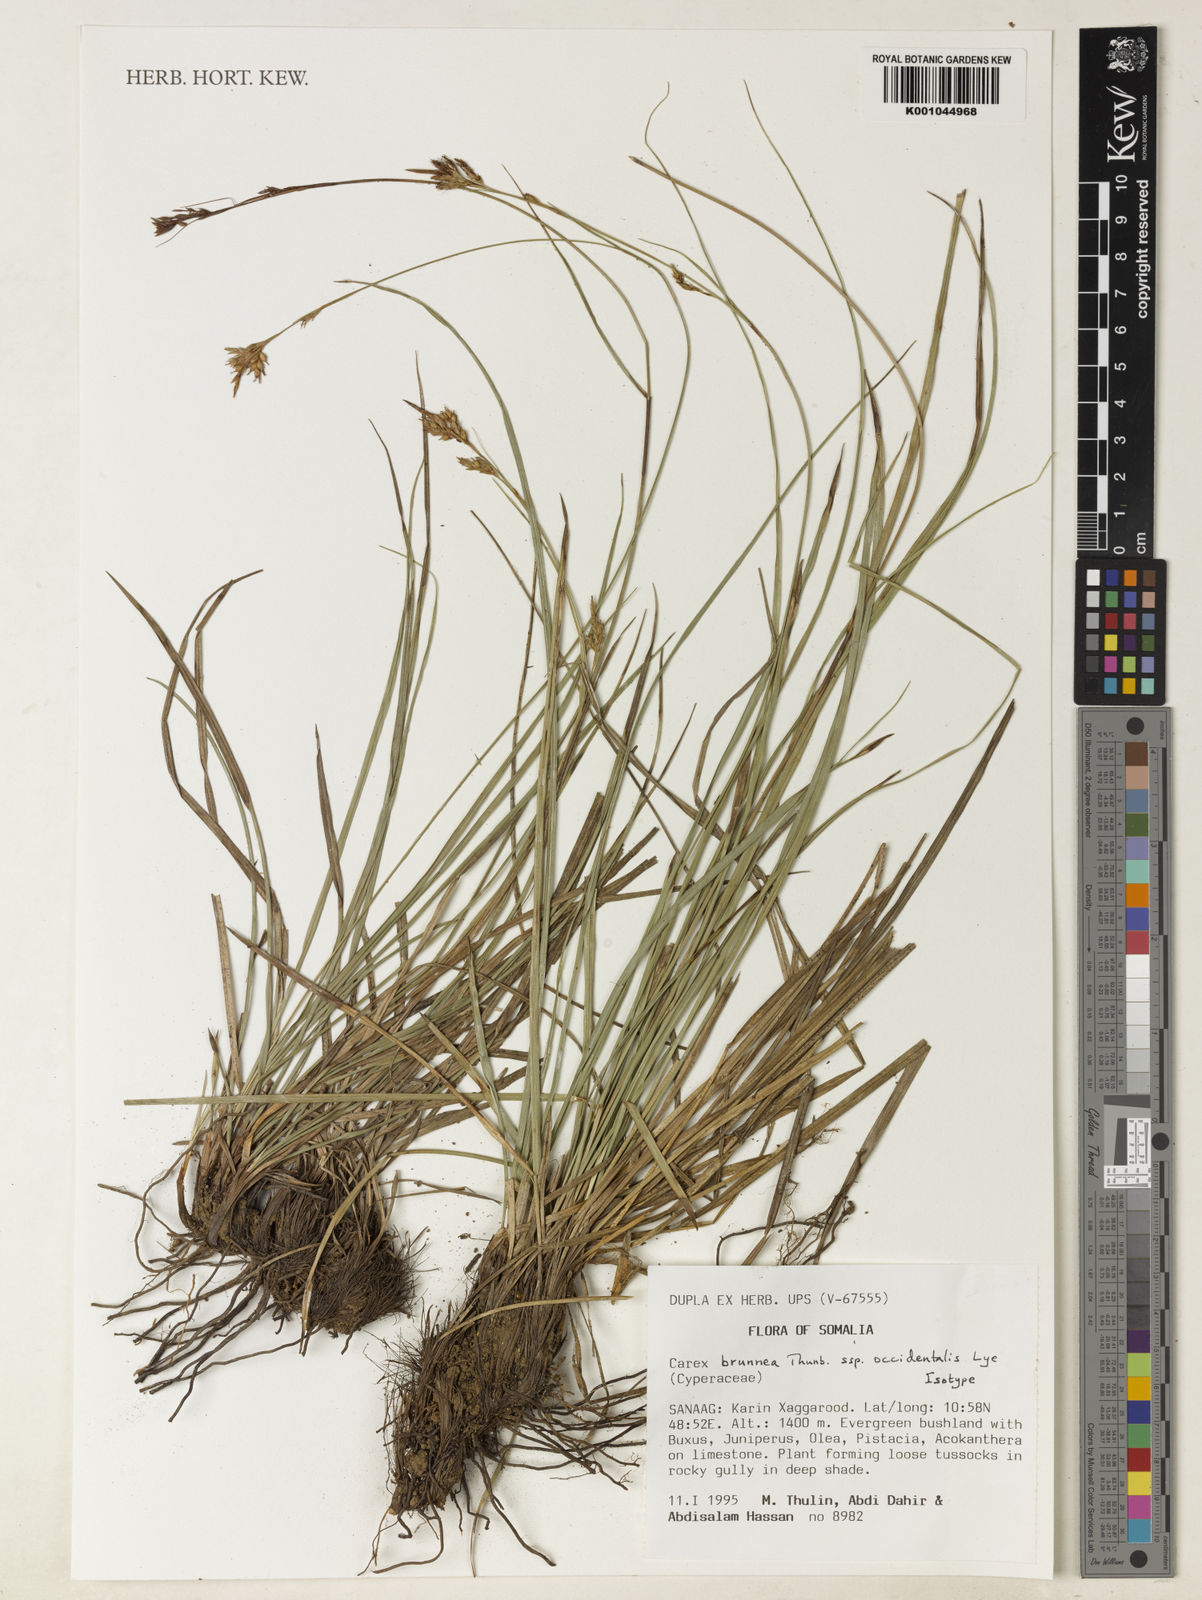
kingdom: Plantae
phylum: Tracheophyta
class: Liliopsida
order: Poales
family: Cyperaceae
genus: Carex
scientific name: Carex brunnea
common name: Greater brown sedge
